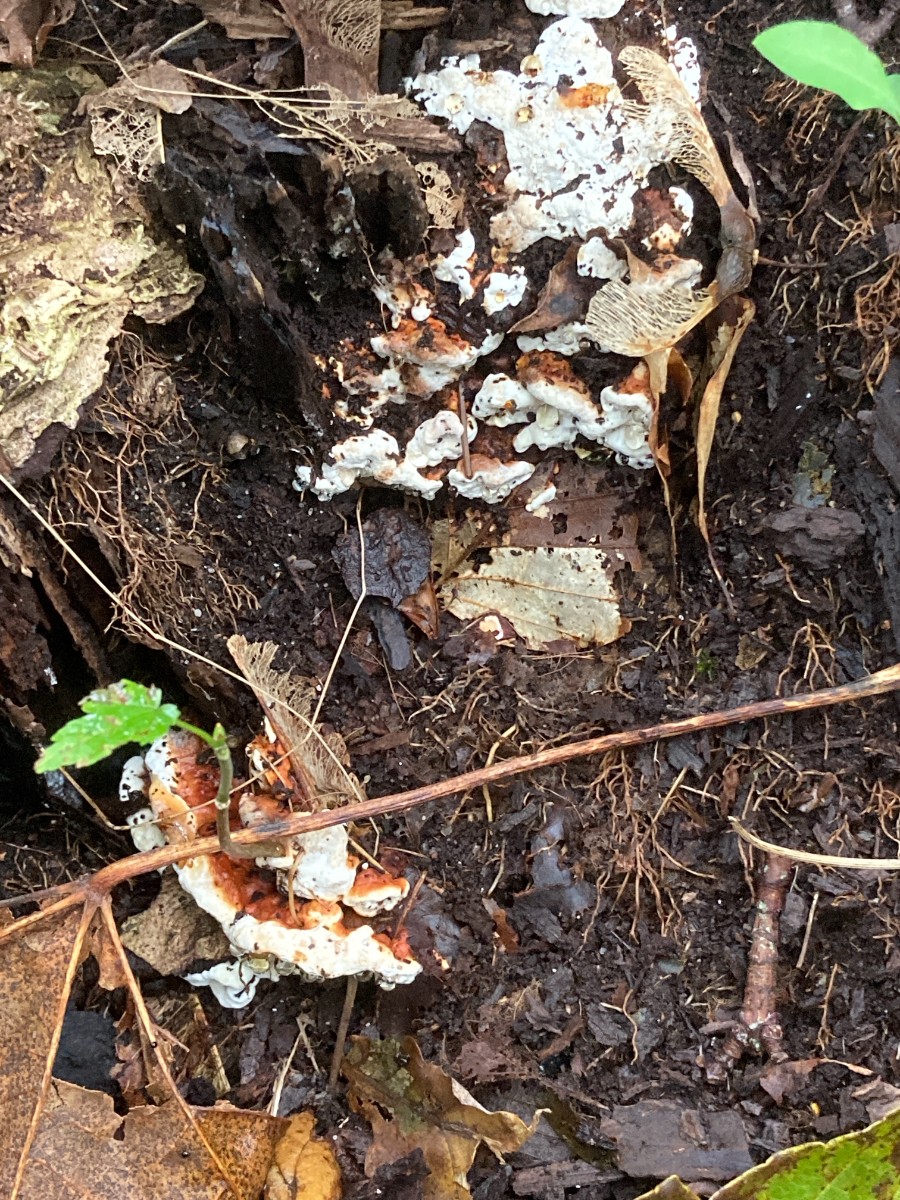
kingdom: Fungi
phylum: Basidiomycota
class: Agaricomycetes
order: Russulales
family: Bondarzewiaceae
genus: Heterobasidion
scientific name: Heterobasidion annosum
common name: almindelig rodfordærver
